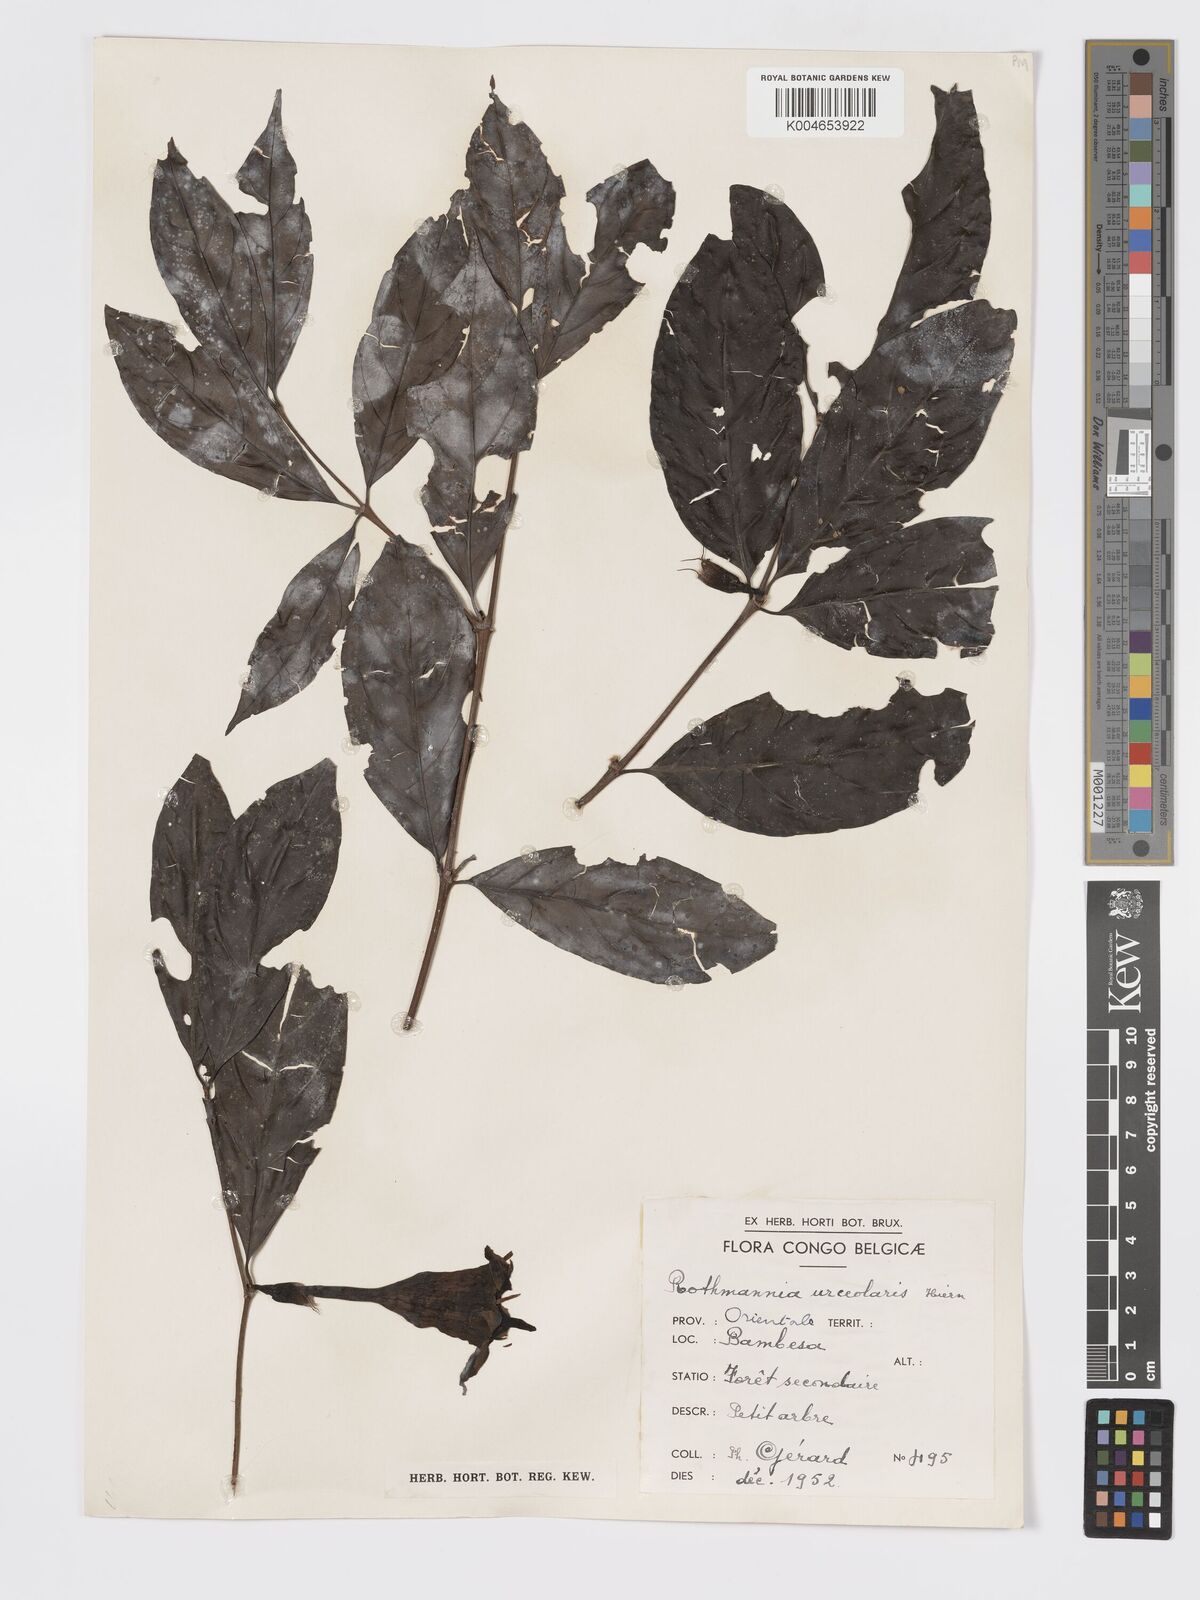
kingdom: Plantae
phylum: Tracheophyta
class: Magnoliopsida
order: Gentianales
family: Rubiaceae
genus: Rothmannia
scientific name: Rothmannia urcelliformis
